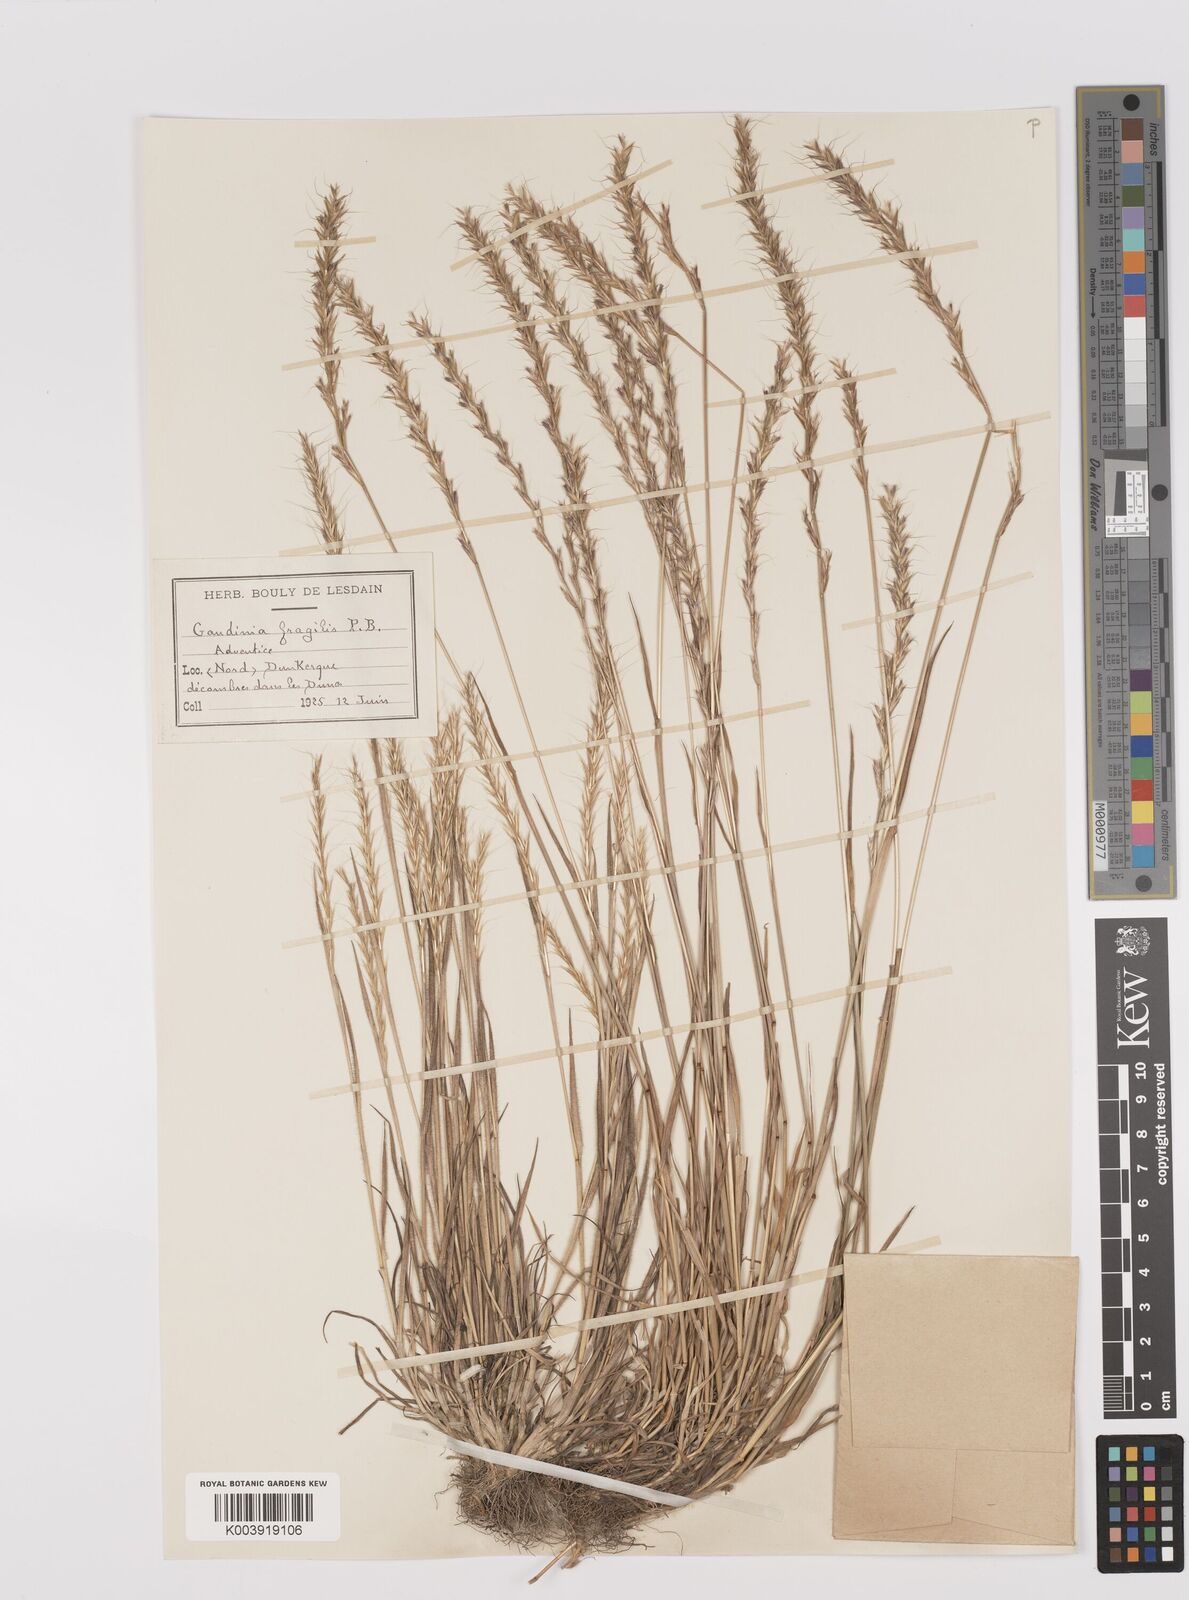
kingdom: Plantae
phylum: Tracheophyta
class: Liliopsida
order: Poales
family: Poaceae
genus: Gaudinia
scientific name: Gaudinia fragilis
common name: French oat-grass
